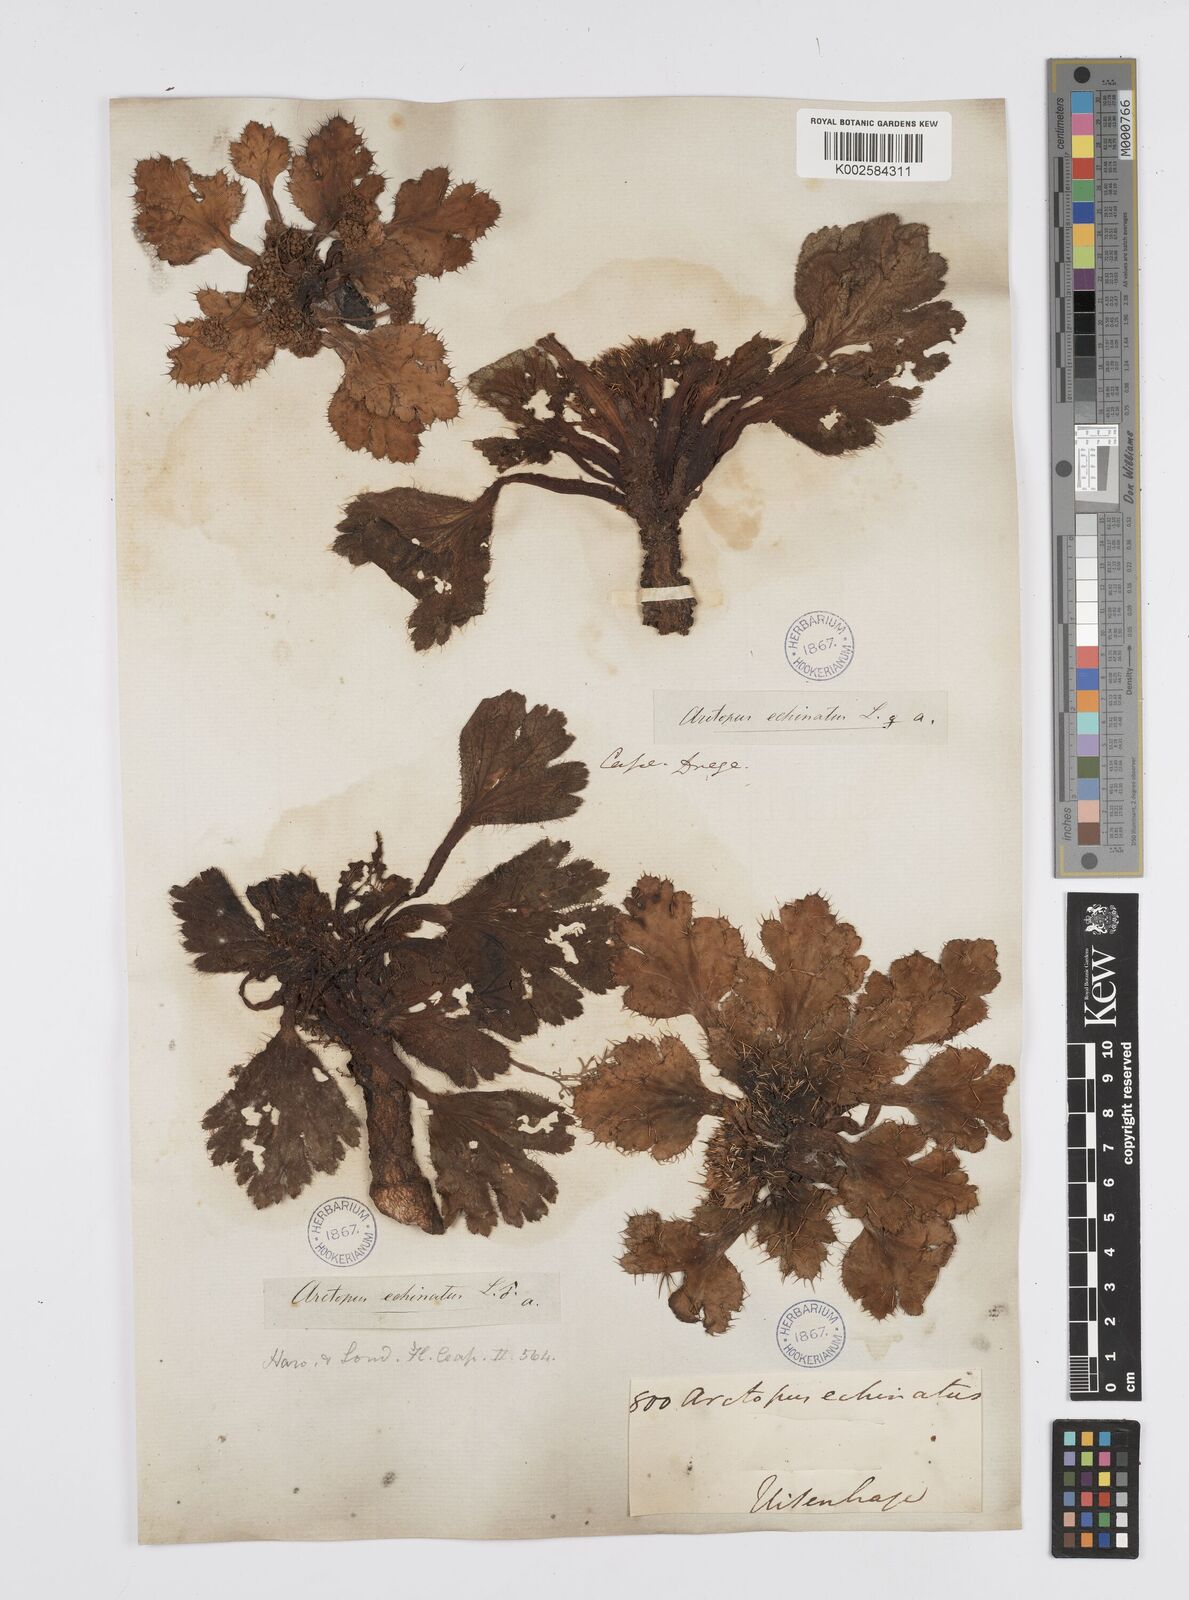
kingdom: Plantae
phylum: Tracheophyta
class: Magnoliopsida
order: Apiales
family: Apiaceae
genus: Arctopus
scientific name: Arctopus echinatus
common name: Platdoring
